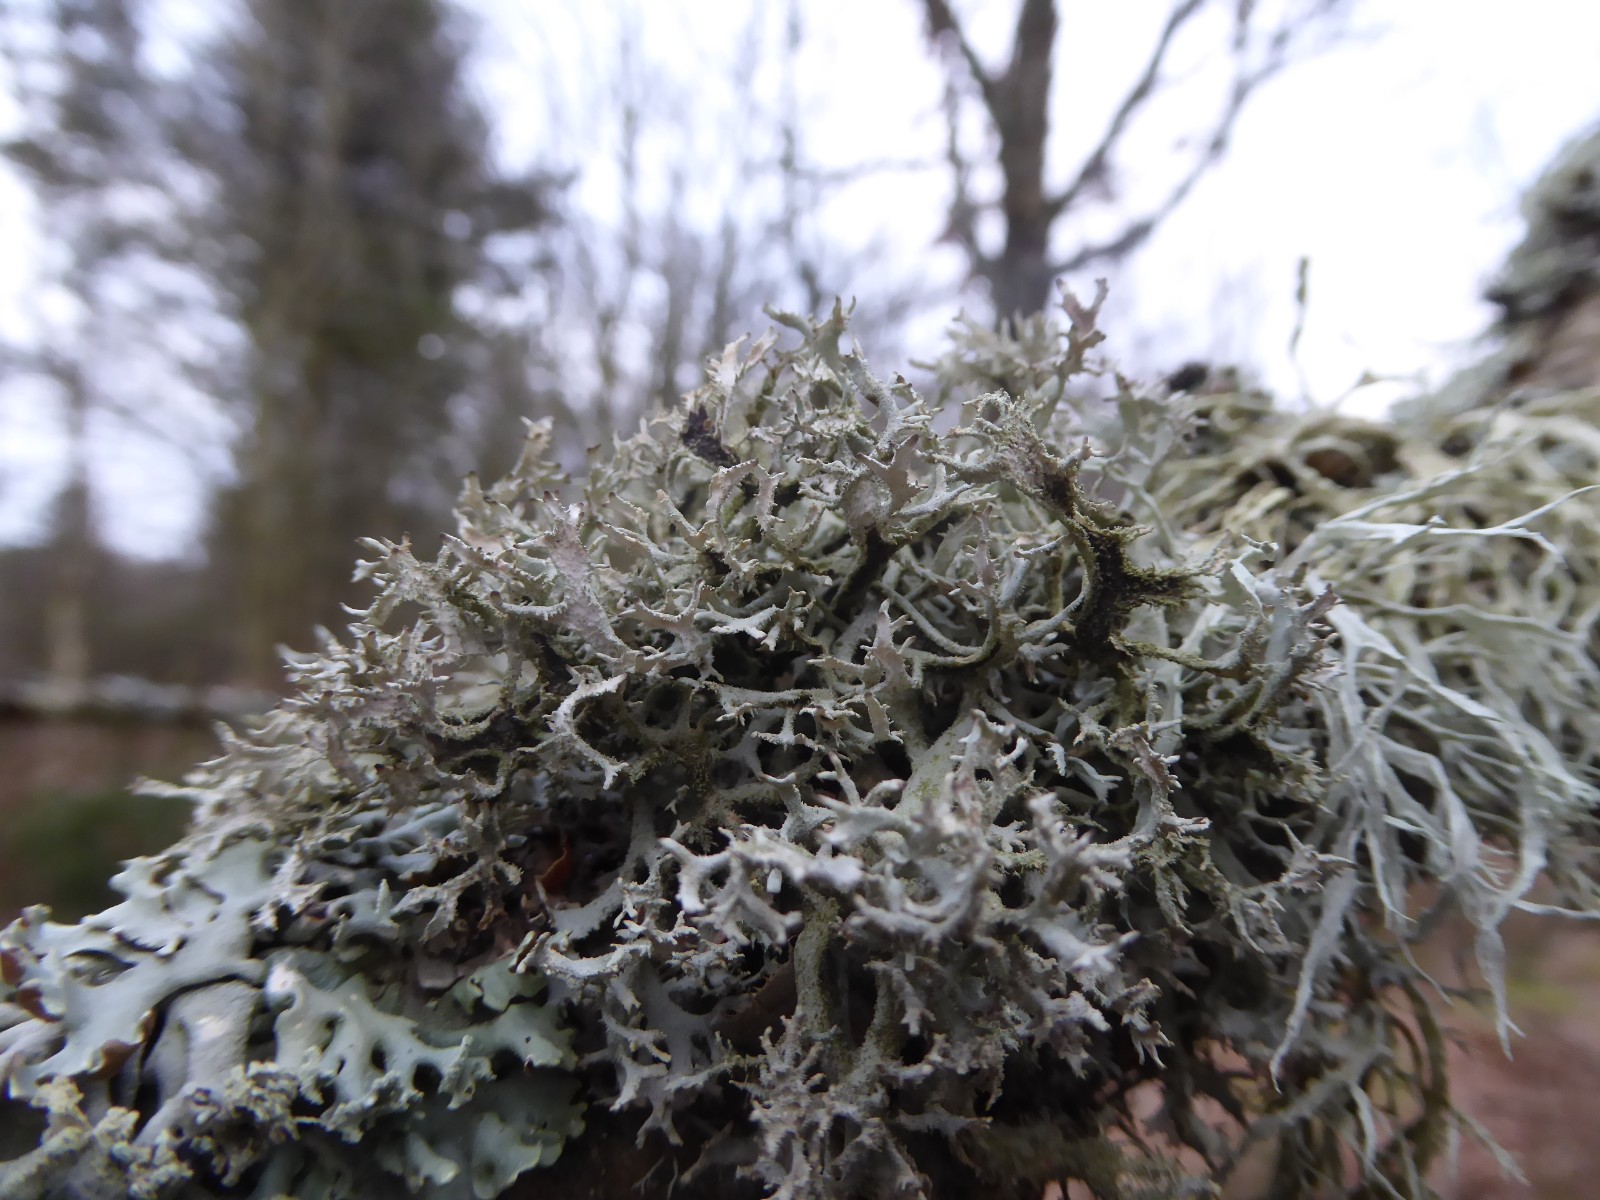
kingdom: Fungi
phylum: Ascomycota
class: Lecanoromycetes
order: Lecanorales
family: Parmeliaceae
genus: Pseudevernia
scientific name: Pseudevernia furfuracea
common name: grå fyrrelav
